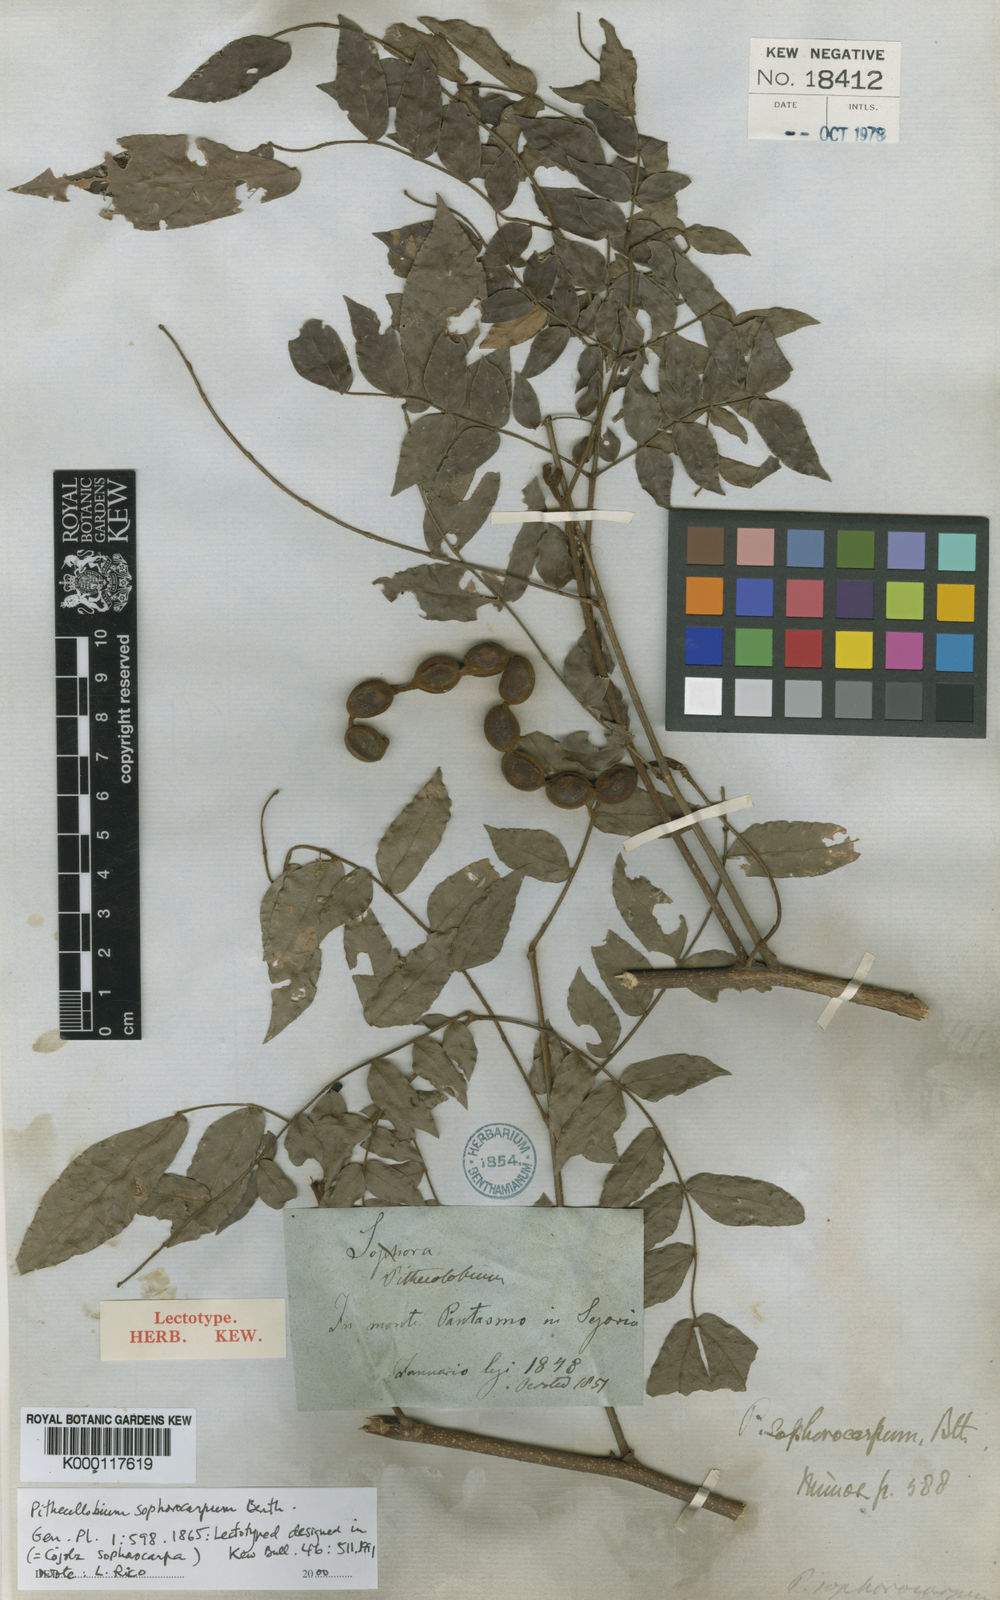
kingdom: Plantae
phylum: Tracheophyta
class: Magnoliopsida
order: Fabales
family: Fabaceae
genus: Cojoba
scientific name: Cojoba sophorocarpa
